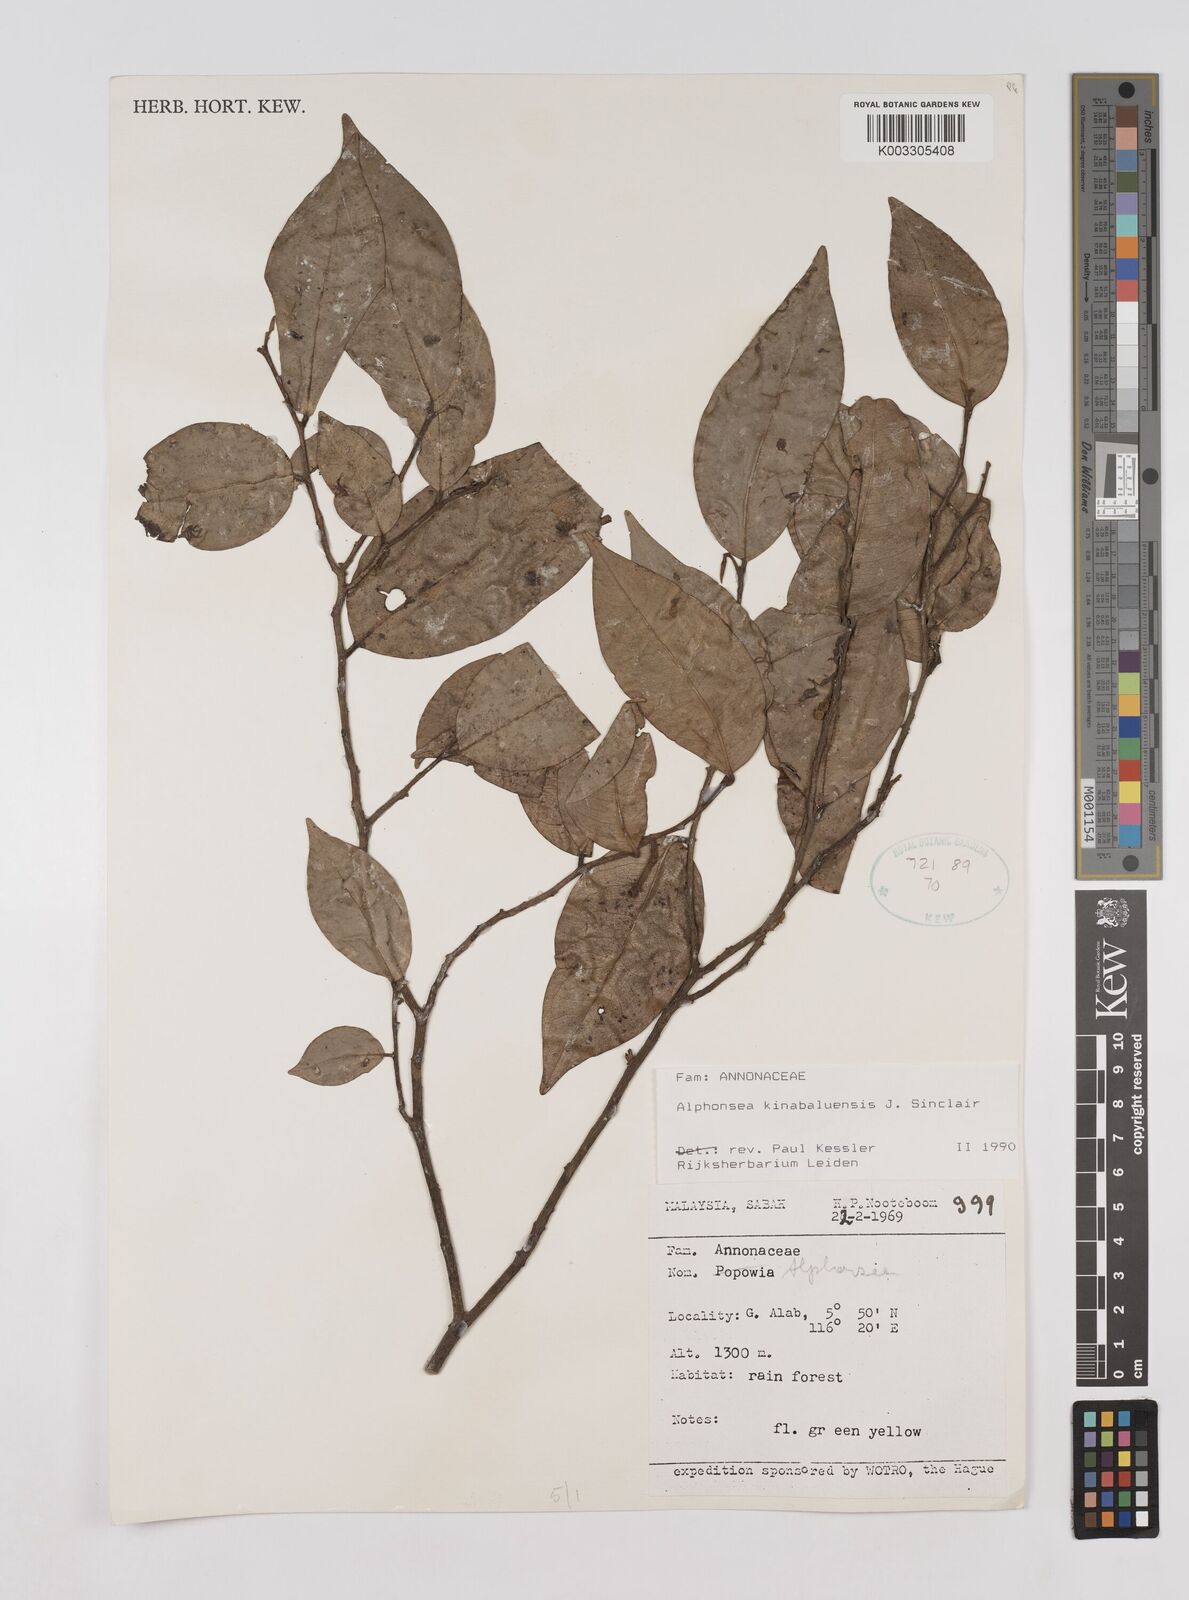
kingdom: Plantae
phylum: Tracheophyta
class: Magnoliopsida
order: Magnoliales
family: Annonaceae
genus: Alphonsea
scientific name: Alphonsea kinabaluensis
